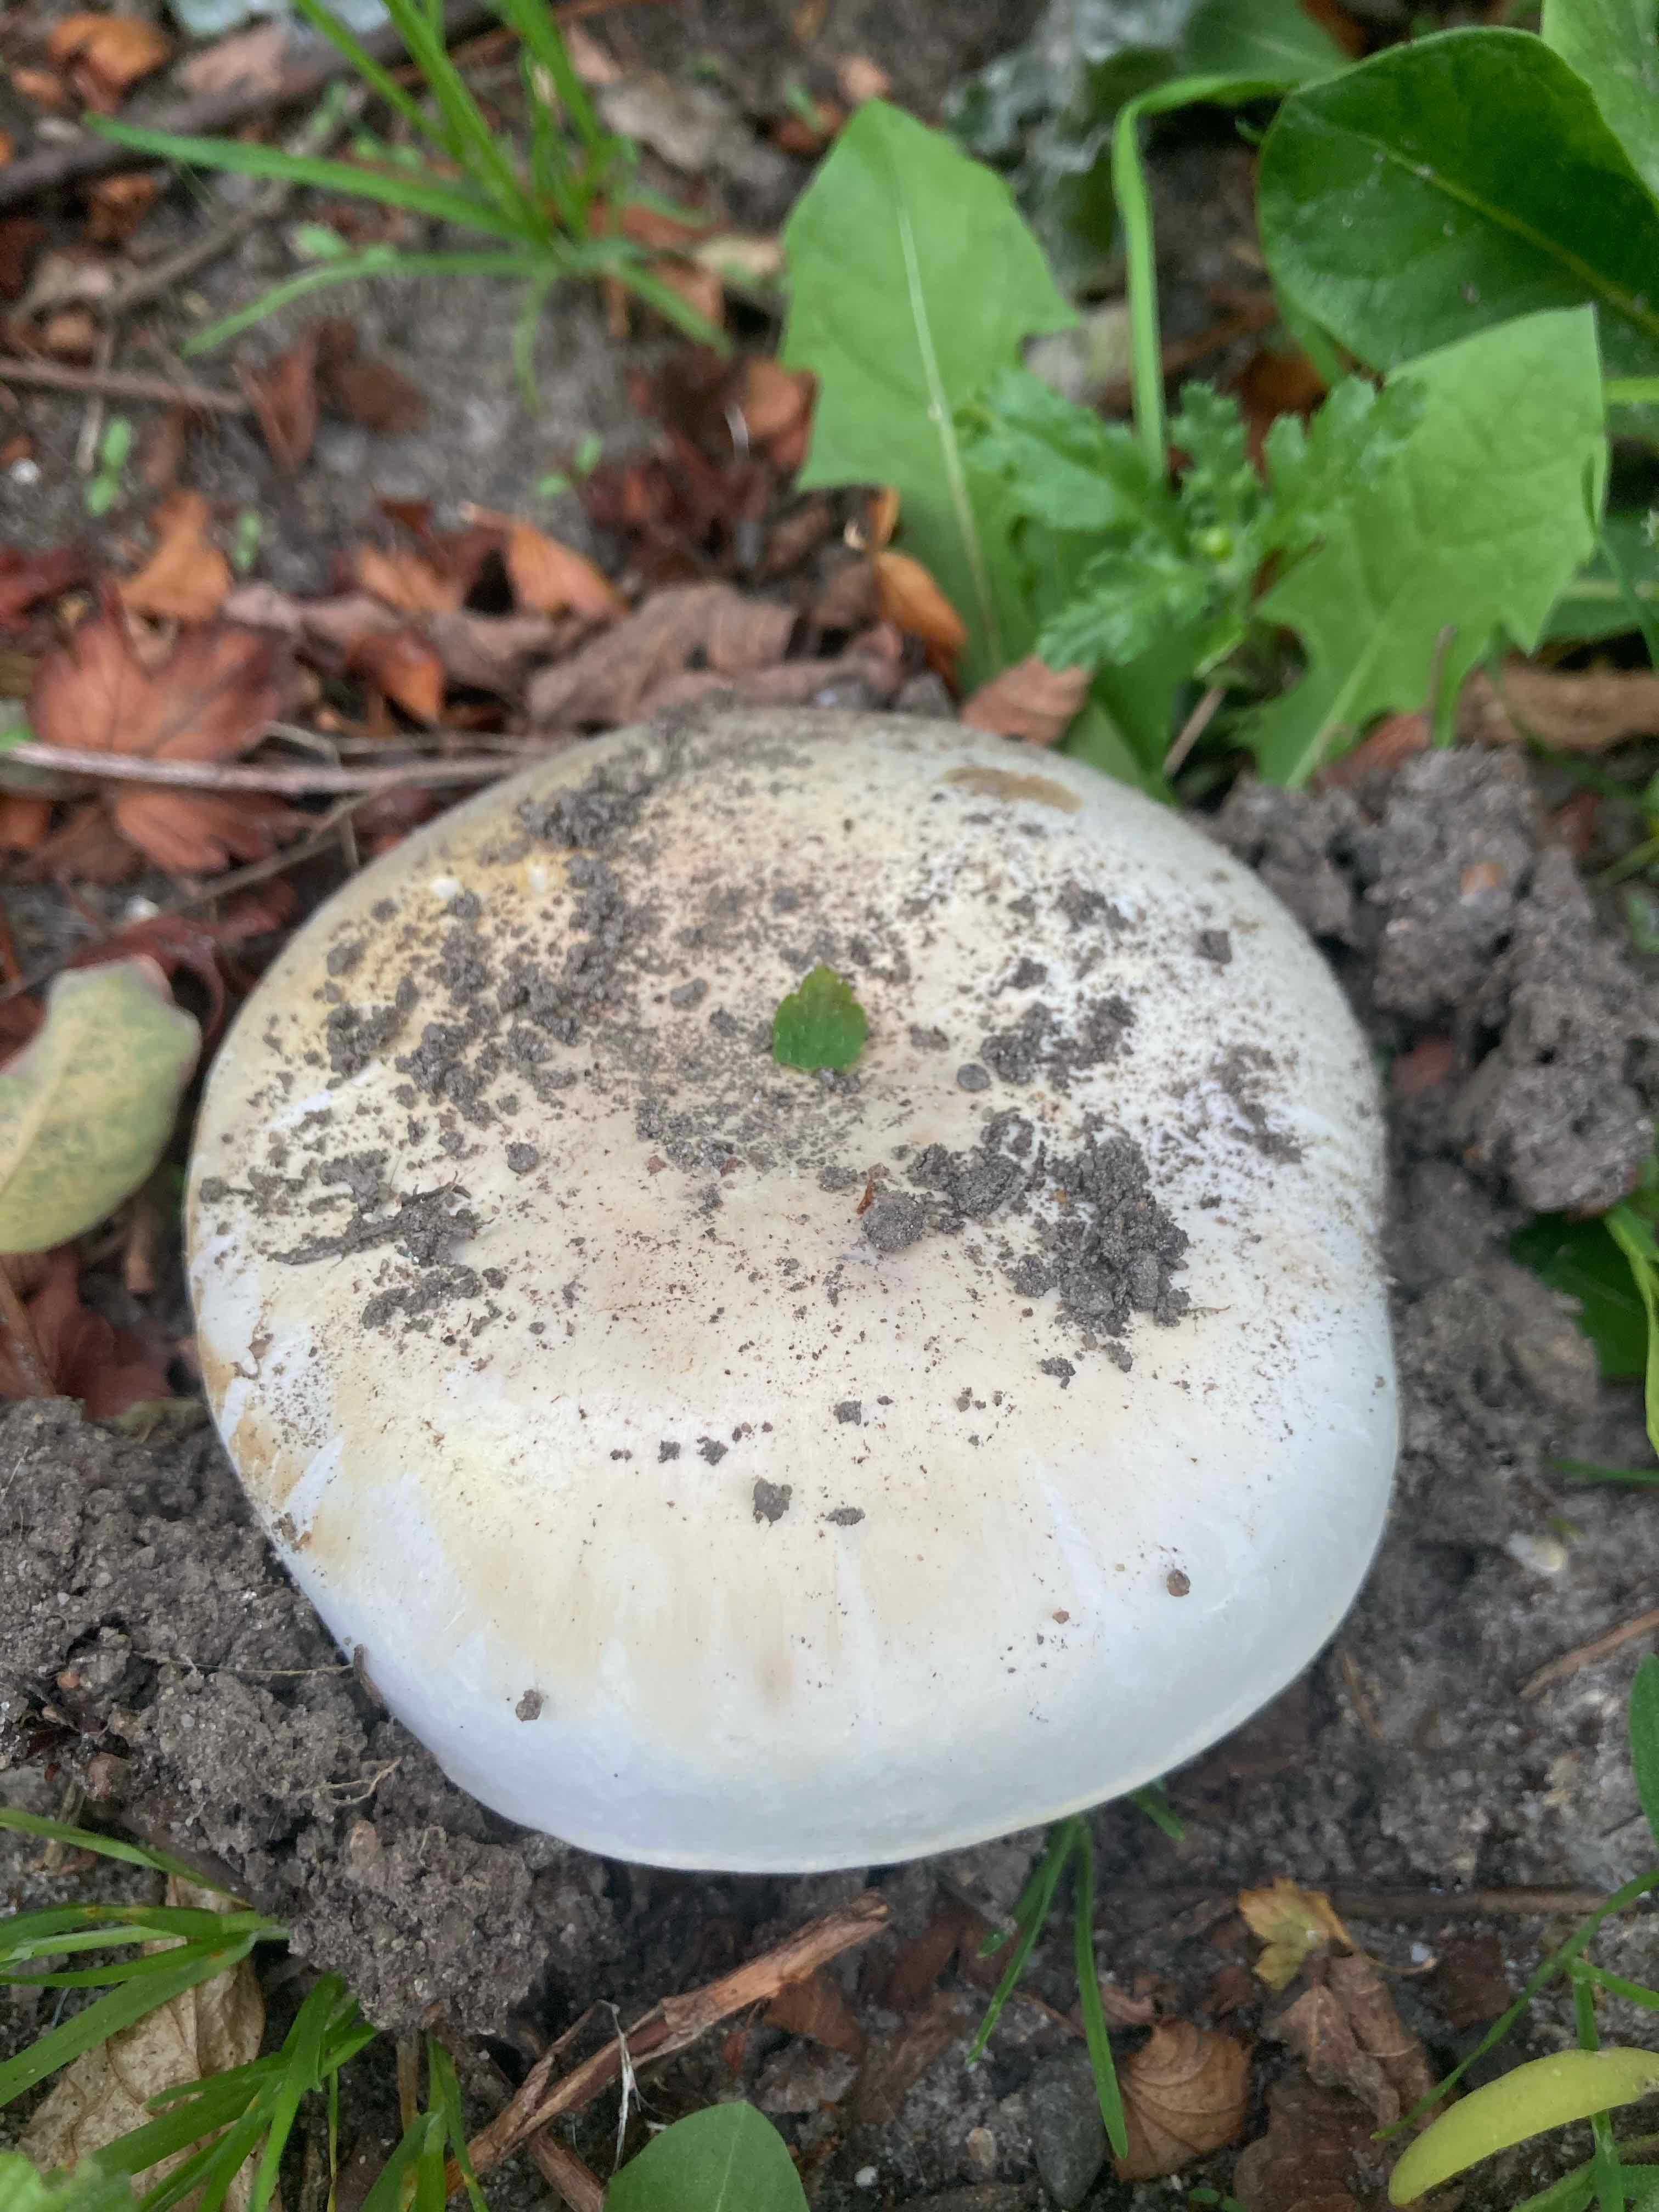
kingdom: Fungi
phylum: Basidiomycota
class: Agaricomycetes
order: Agaricales
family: Agaricaceae
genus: Agaricus
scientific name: Agaricus bitorquis
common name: vej-champignon
